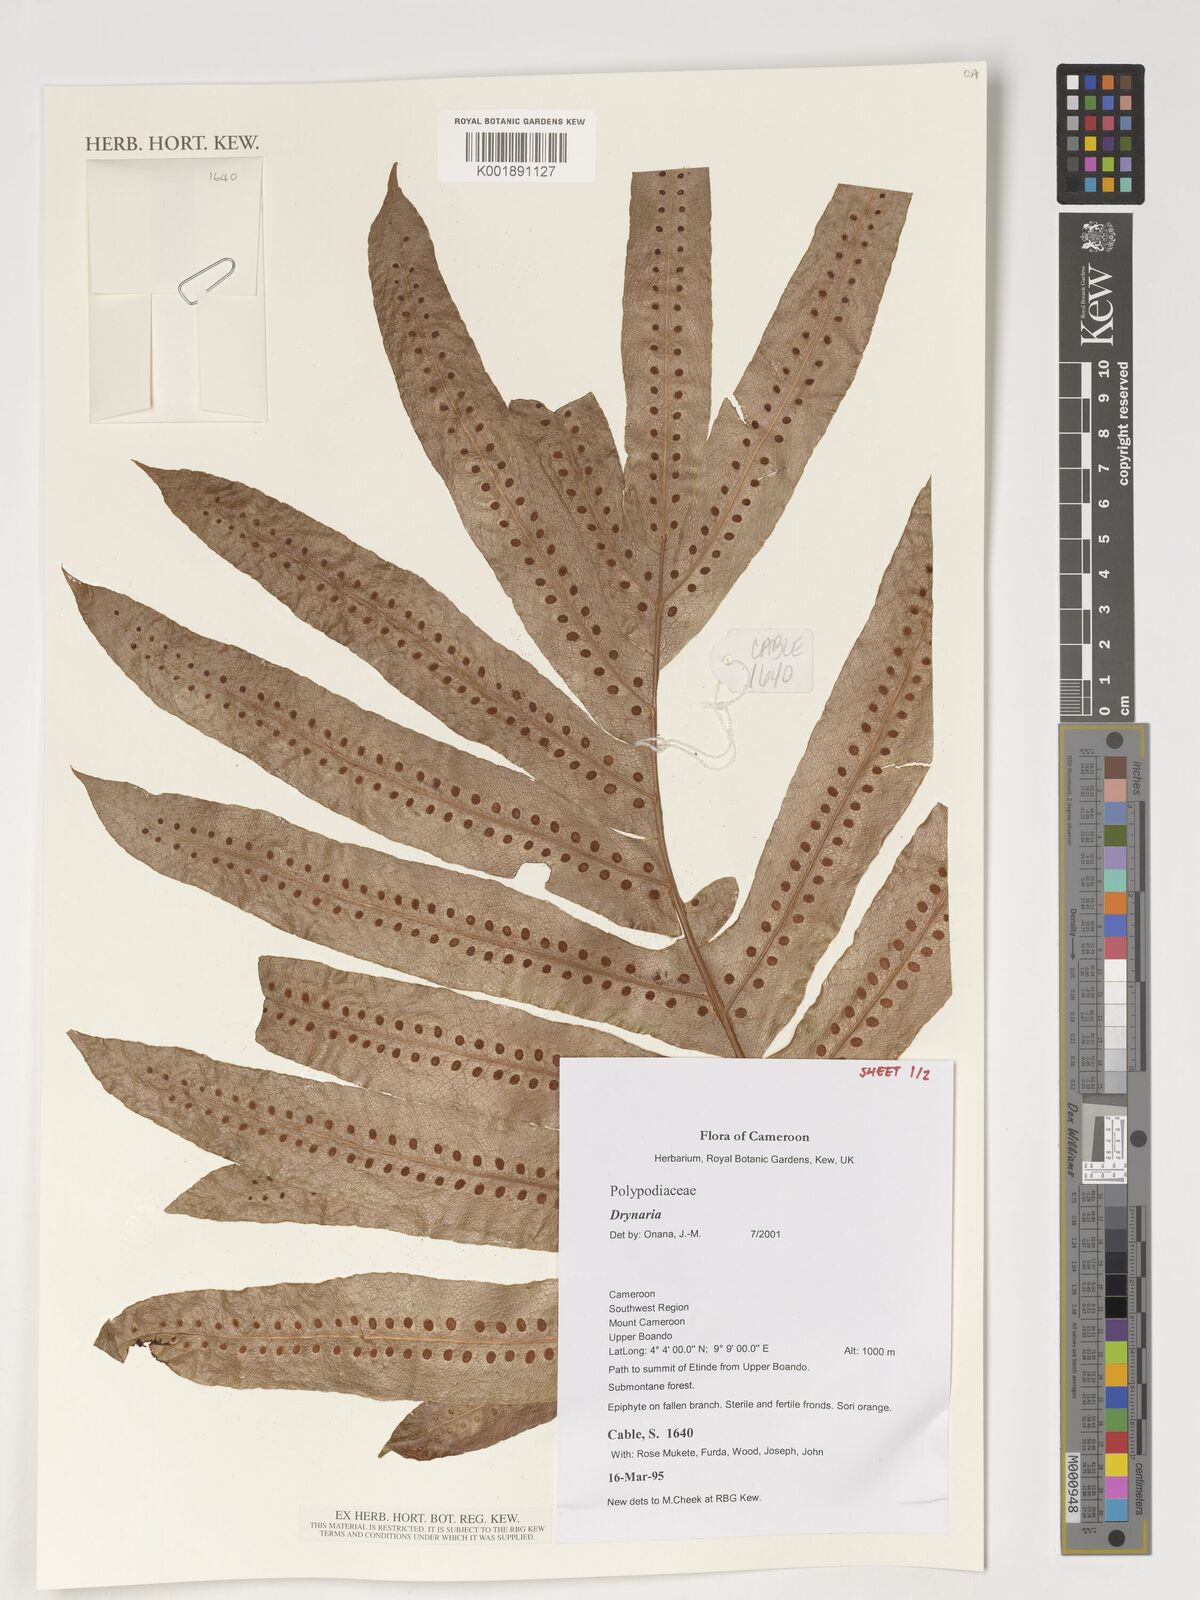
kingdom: Plantae
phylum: Tracheophyta
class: Polypodiopsida
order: Polypodiales
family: Polypodiaceae
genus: Drynaria
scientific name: Drynaria
